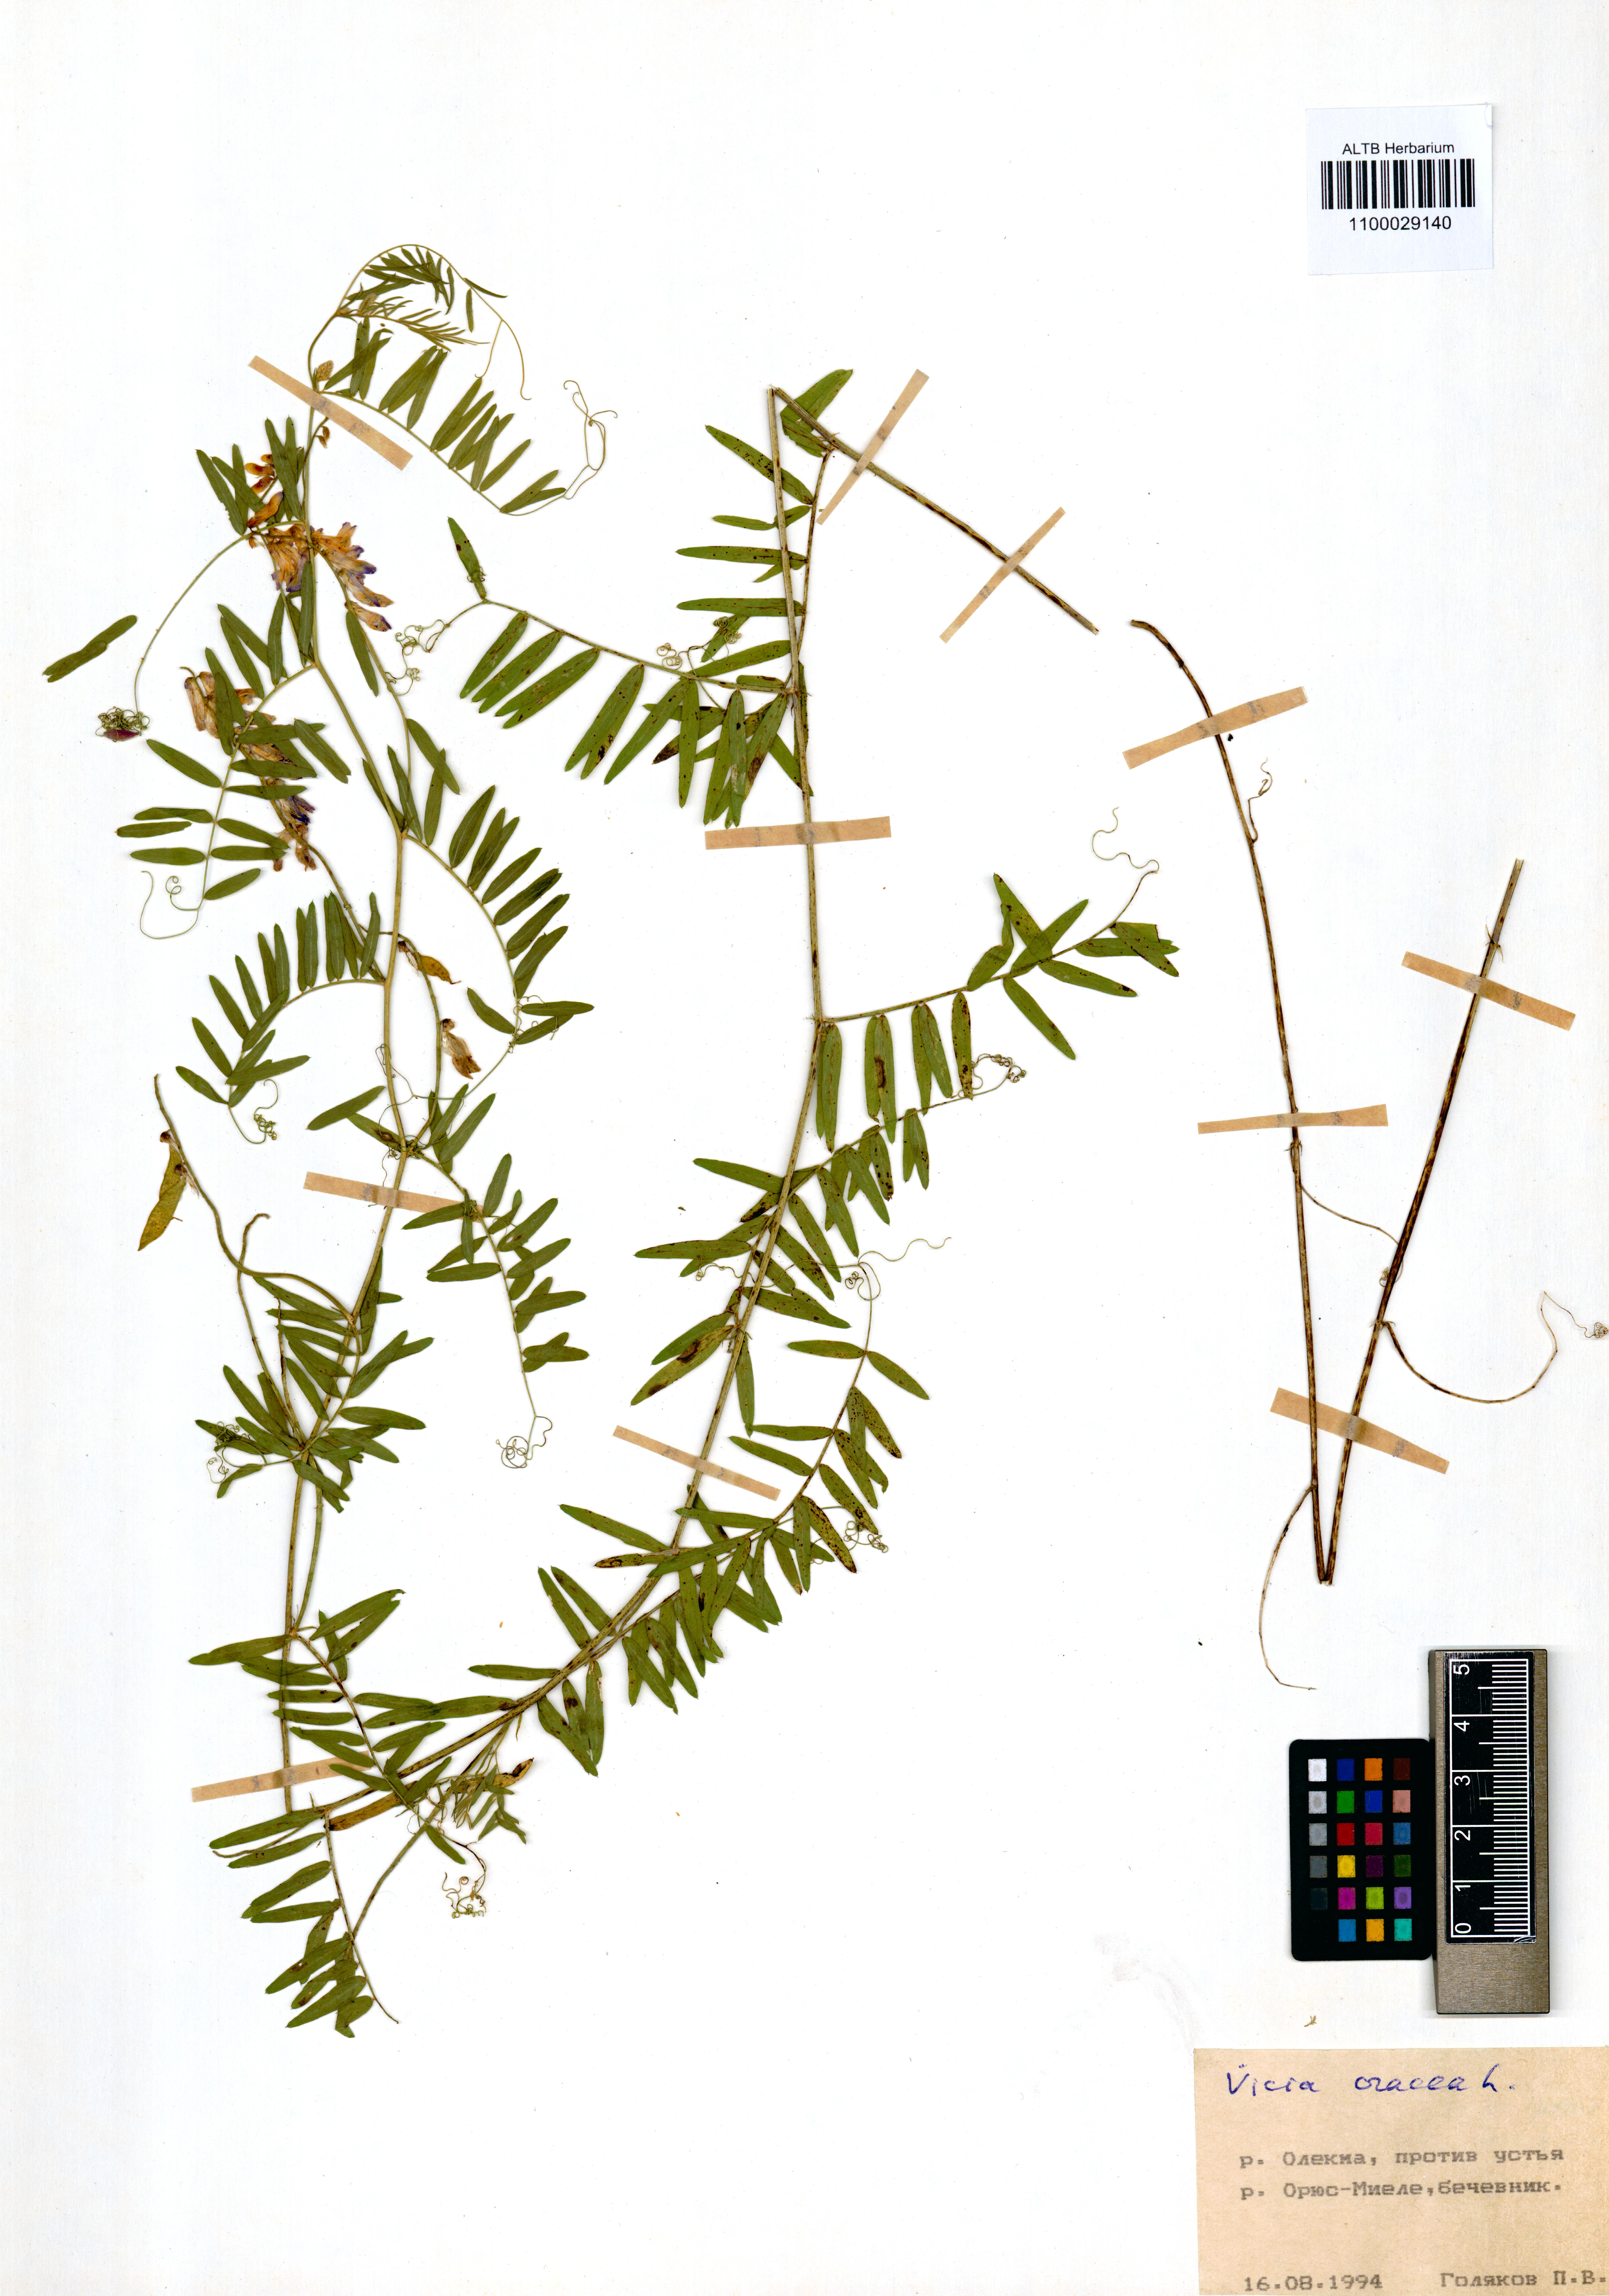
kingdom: Plantae
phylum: Tracheophyta
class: Magnoliopsida
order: Fabales
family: Fabaceae
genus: Vicia
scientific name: Vicia cracca
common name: Bird vetch
